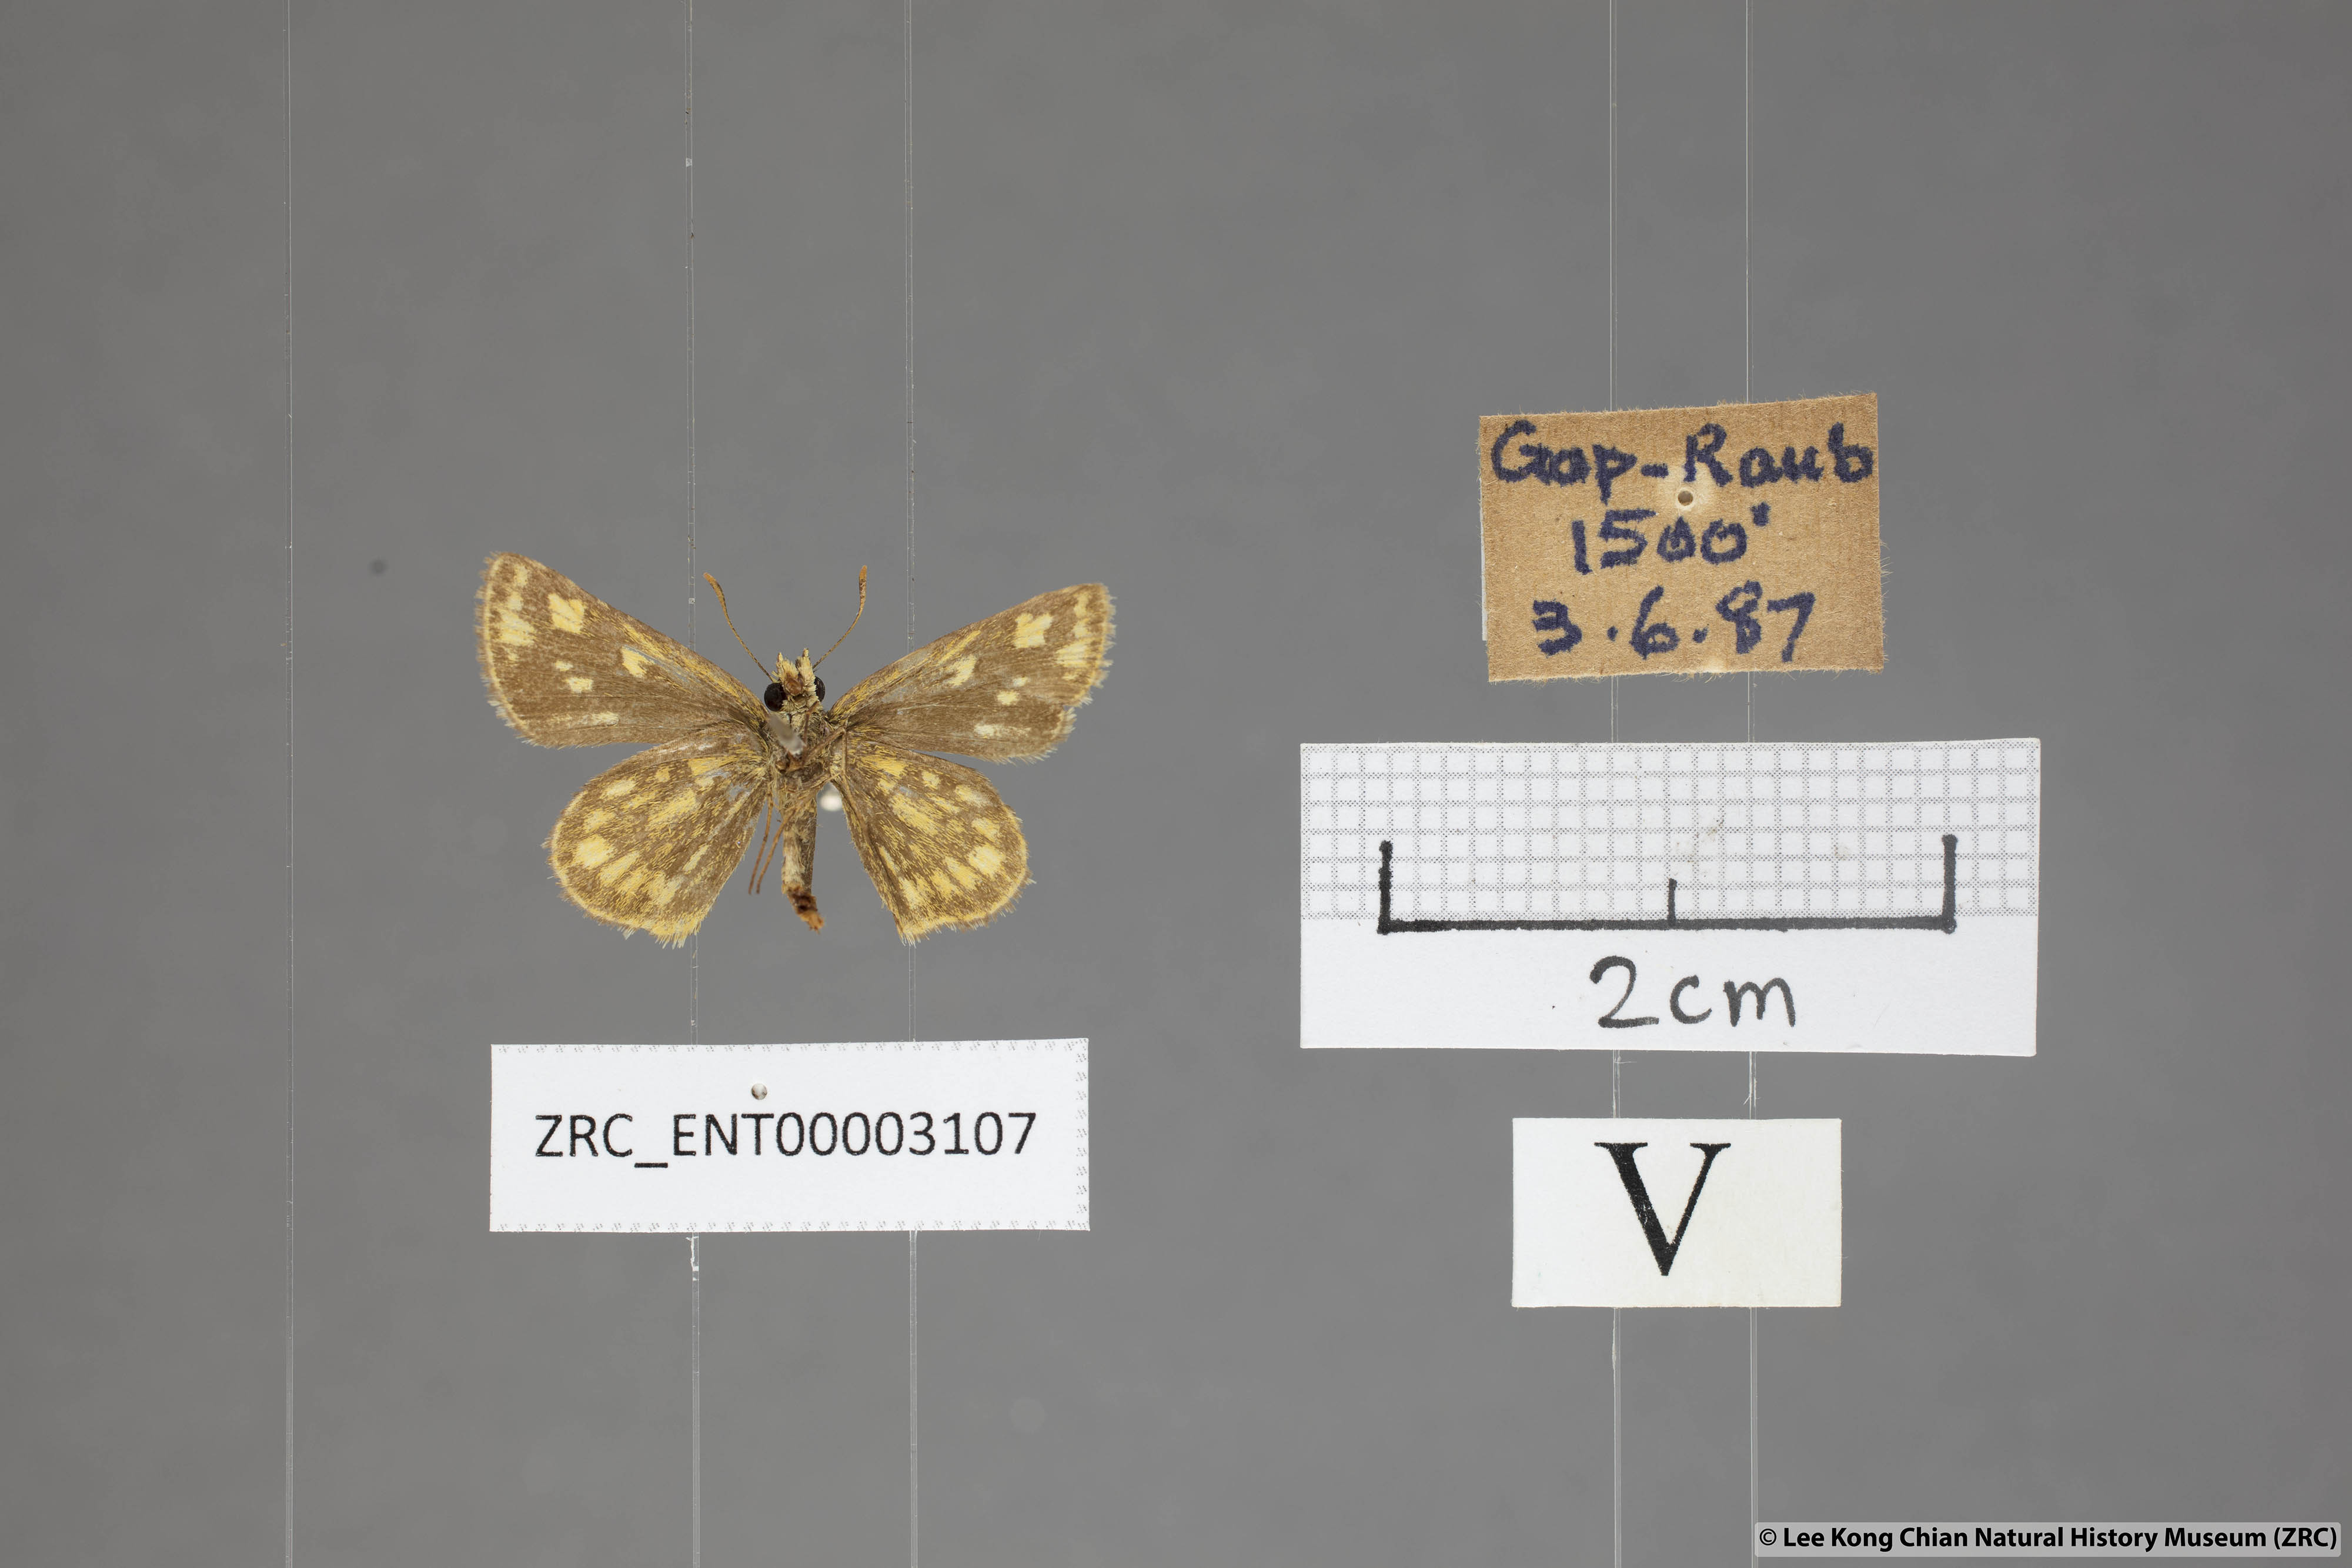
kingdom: Animalia
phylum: Arthropoda
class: Insecta
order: Lepidoptera
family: Hesperiidae
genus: Ampittia
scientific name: Ampittia dioscorides
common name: Common bush hopper
